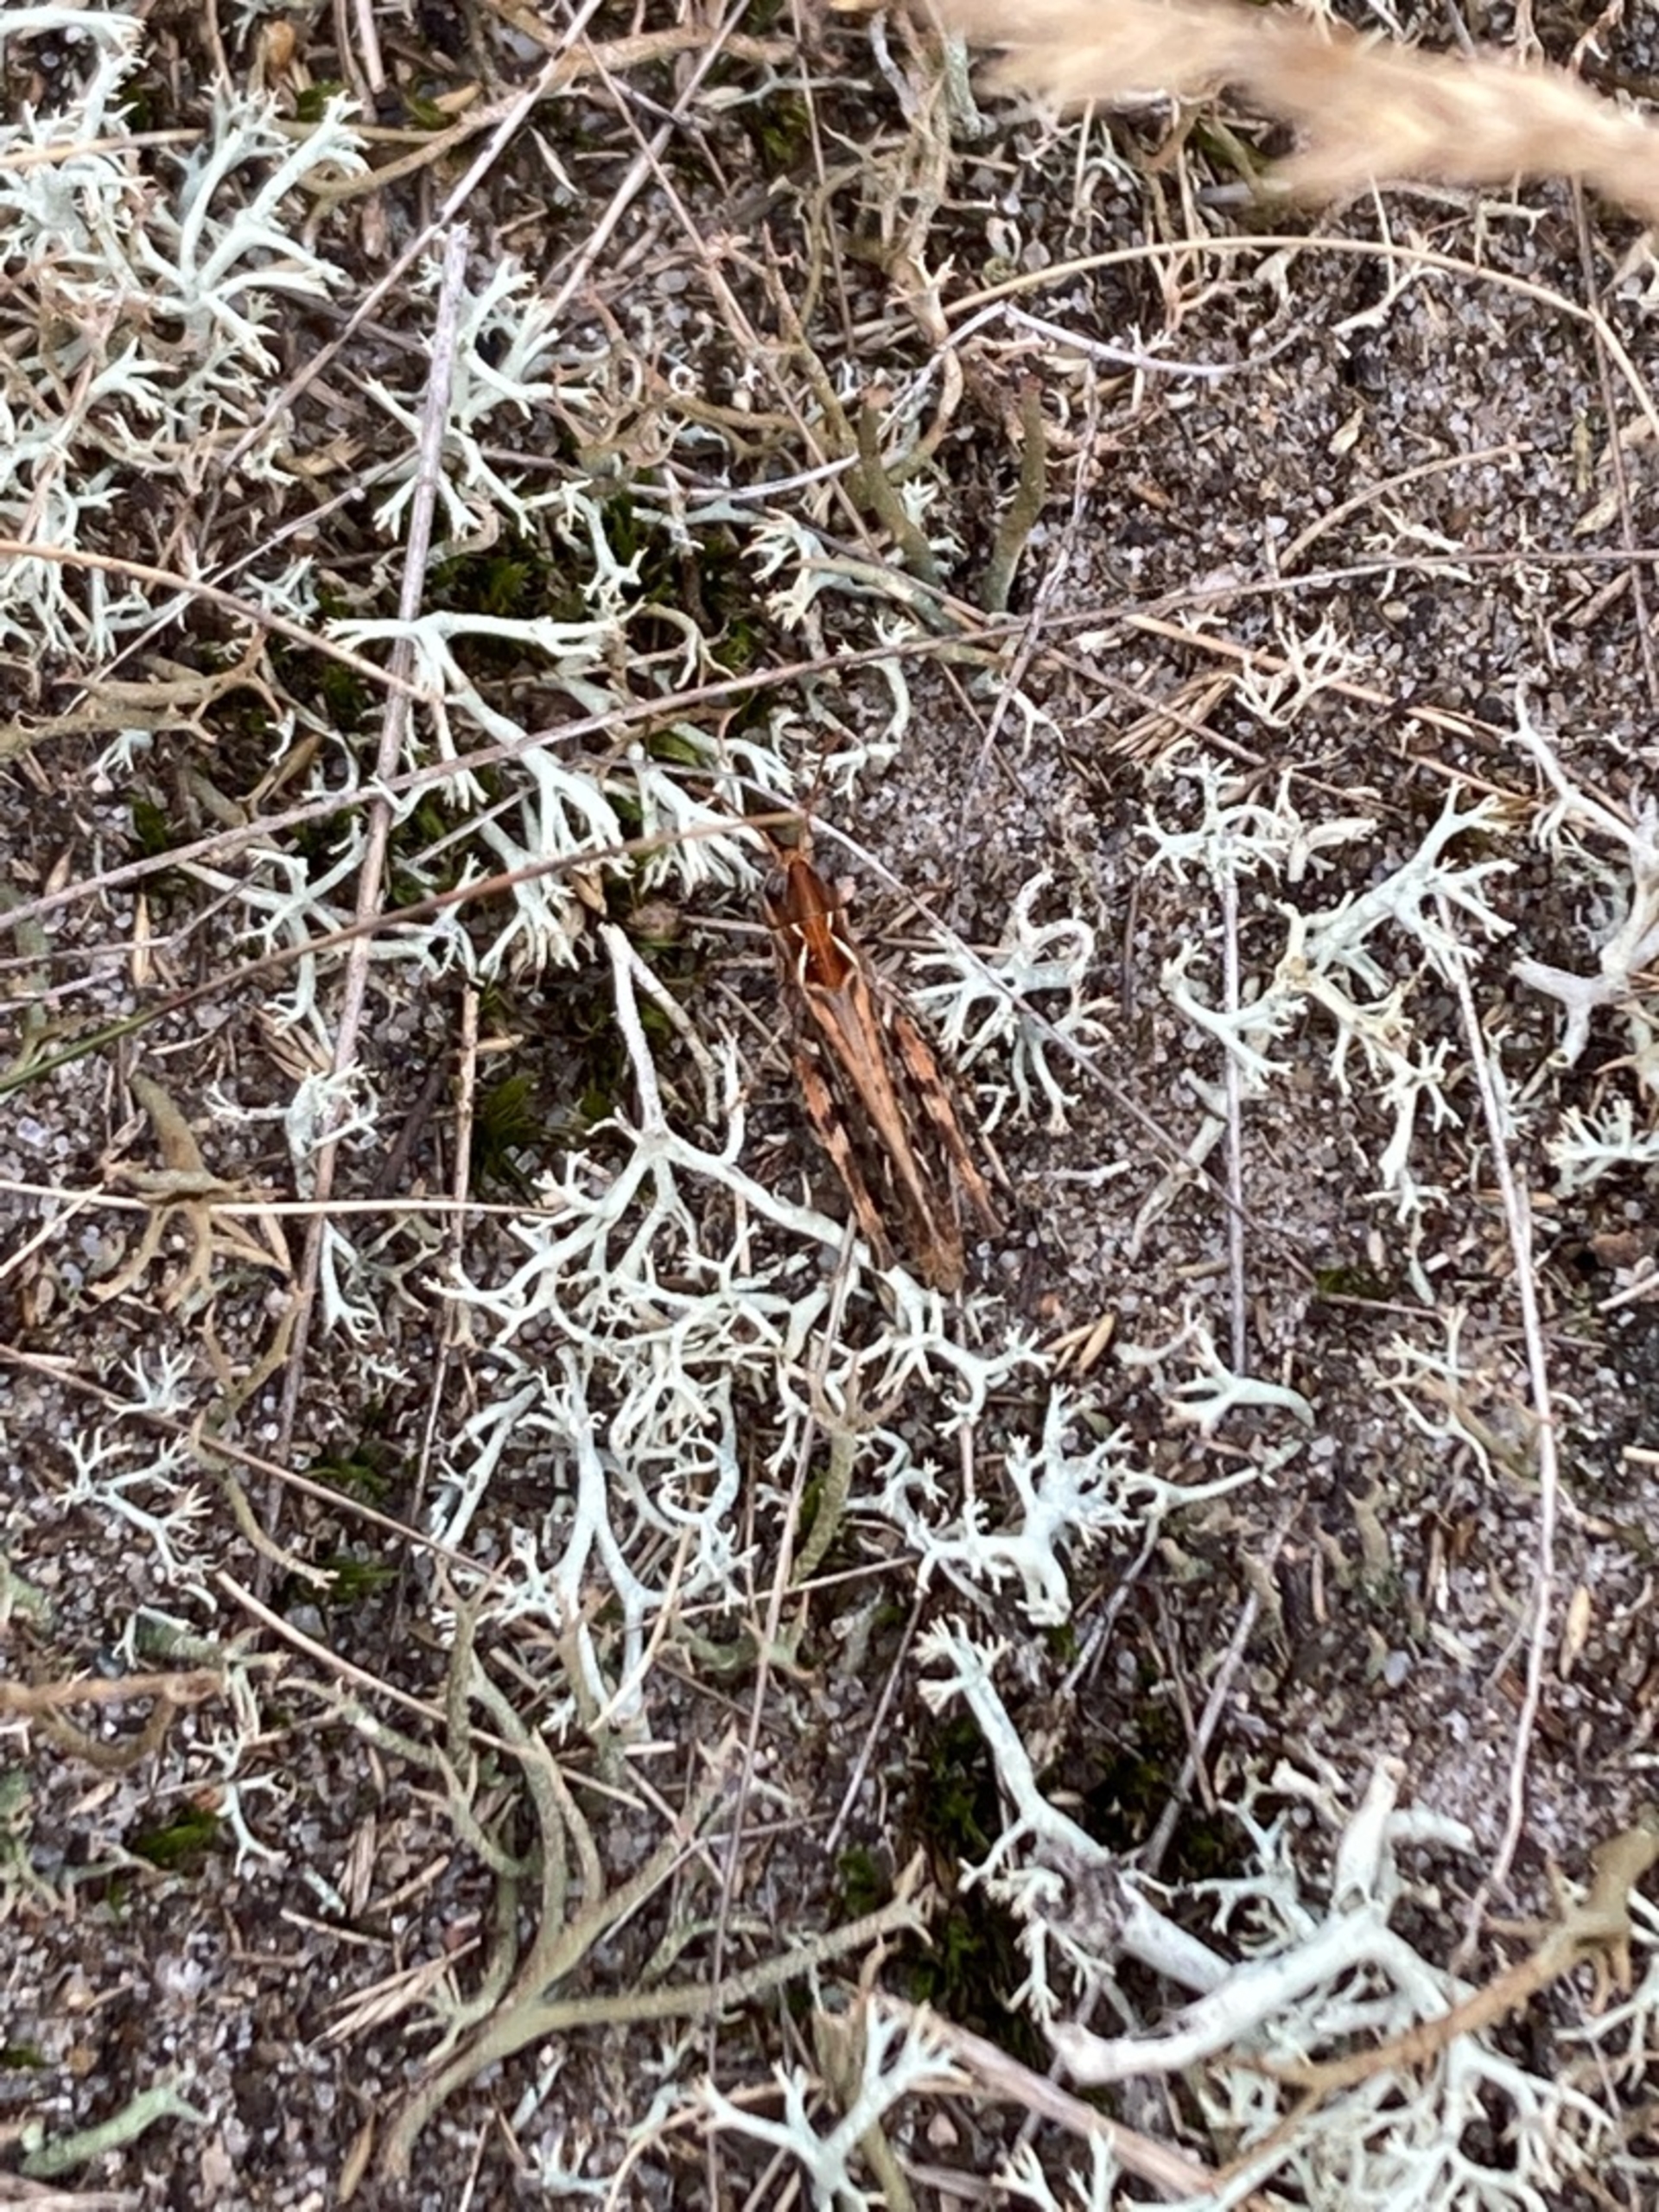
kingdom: Animalia
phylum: Arthropoda
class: Insecta
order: Orthoptera
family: Acrididae
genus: Myrmeleotettix
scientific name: Myrmeleotettix maculatus
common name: Køllegræshoppe
